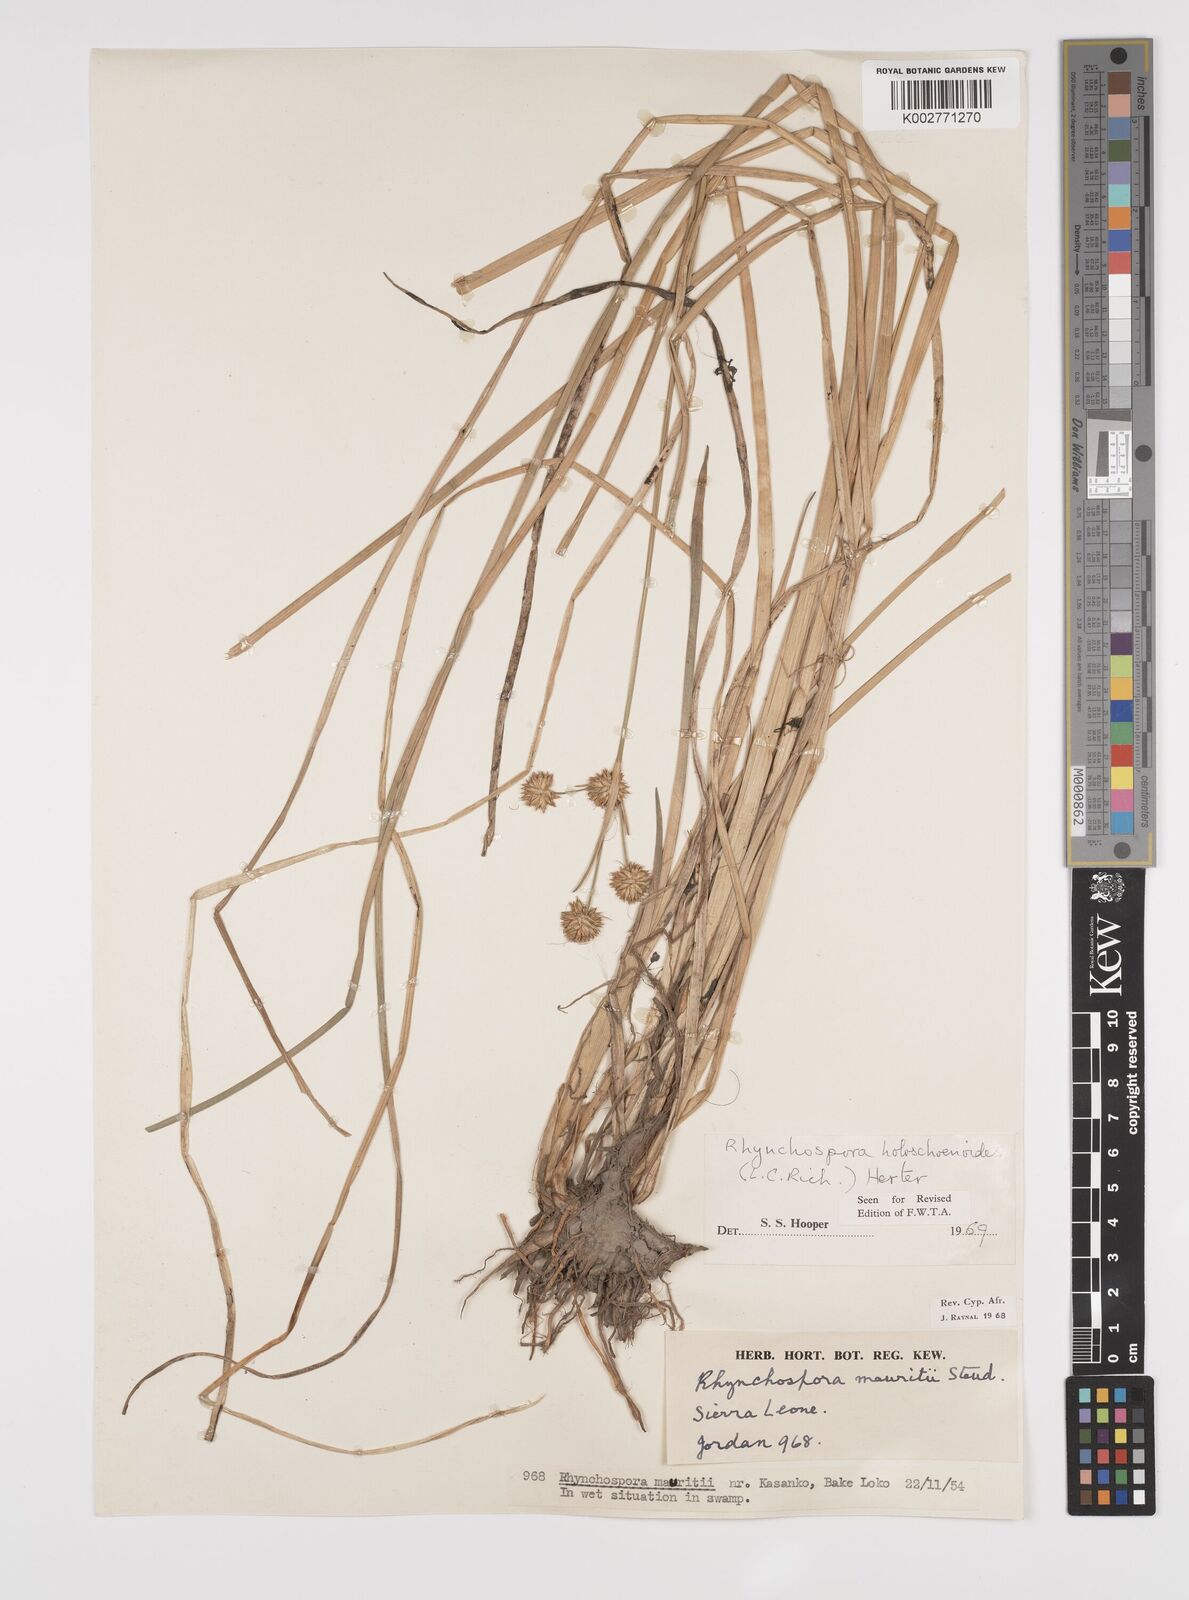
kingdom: Plantae
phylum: Tracheophyta
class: Liliopsida
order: Poales
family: Cyperaceae
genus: Rhynchospora
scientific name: Rhynchospora holoschoenoides
